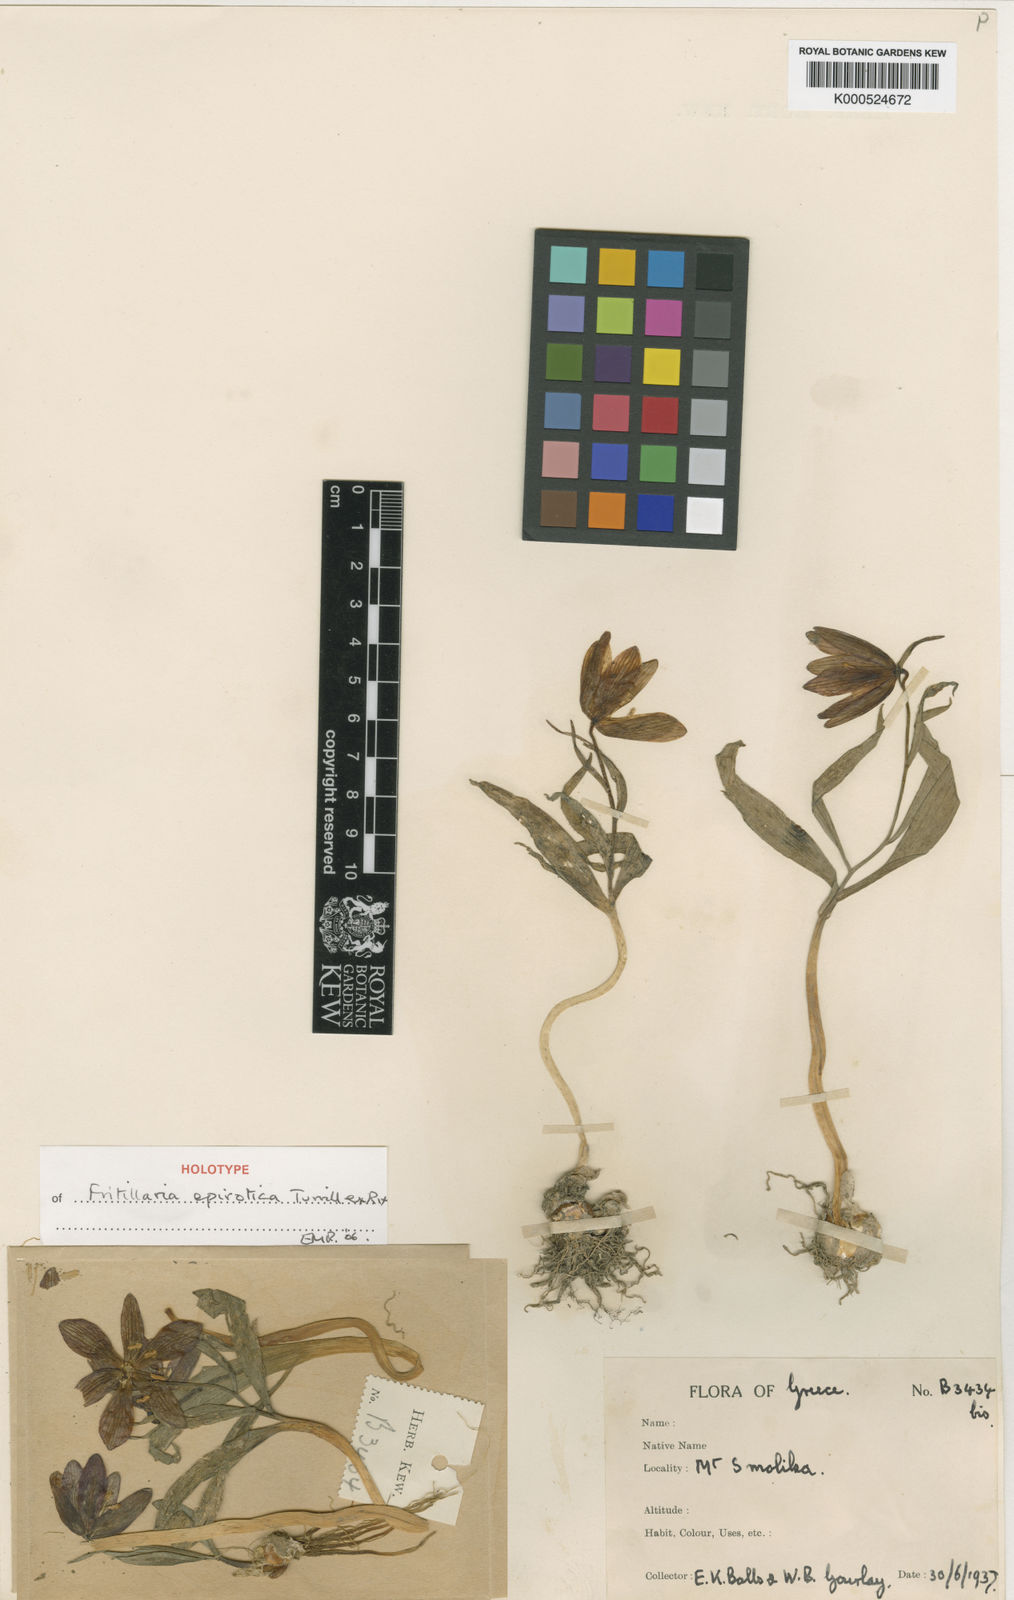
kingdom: Plantae
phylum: Tracheophyta
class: Liliopsida
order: Liliales
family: Liliaceae
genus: Fritillaria
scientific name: Fritillaria epirotica
